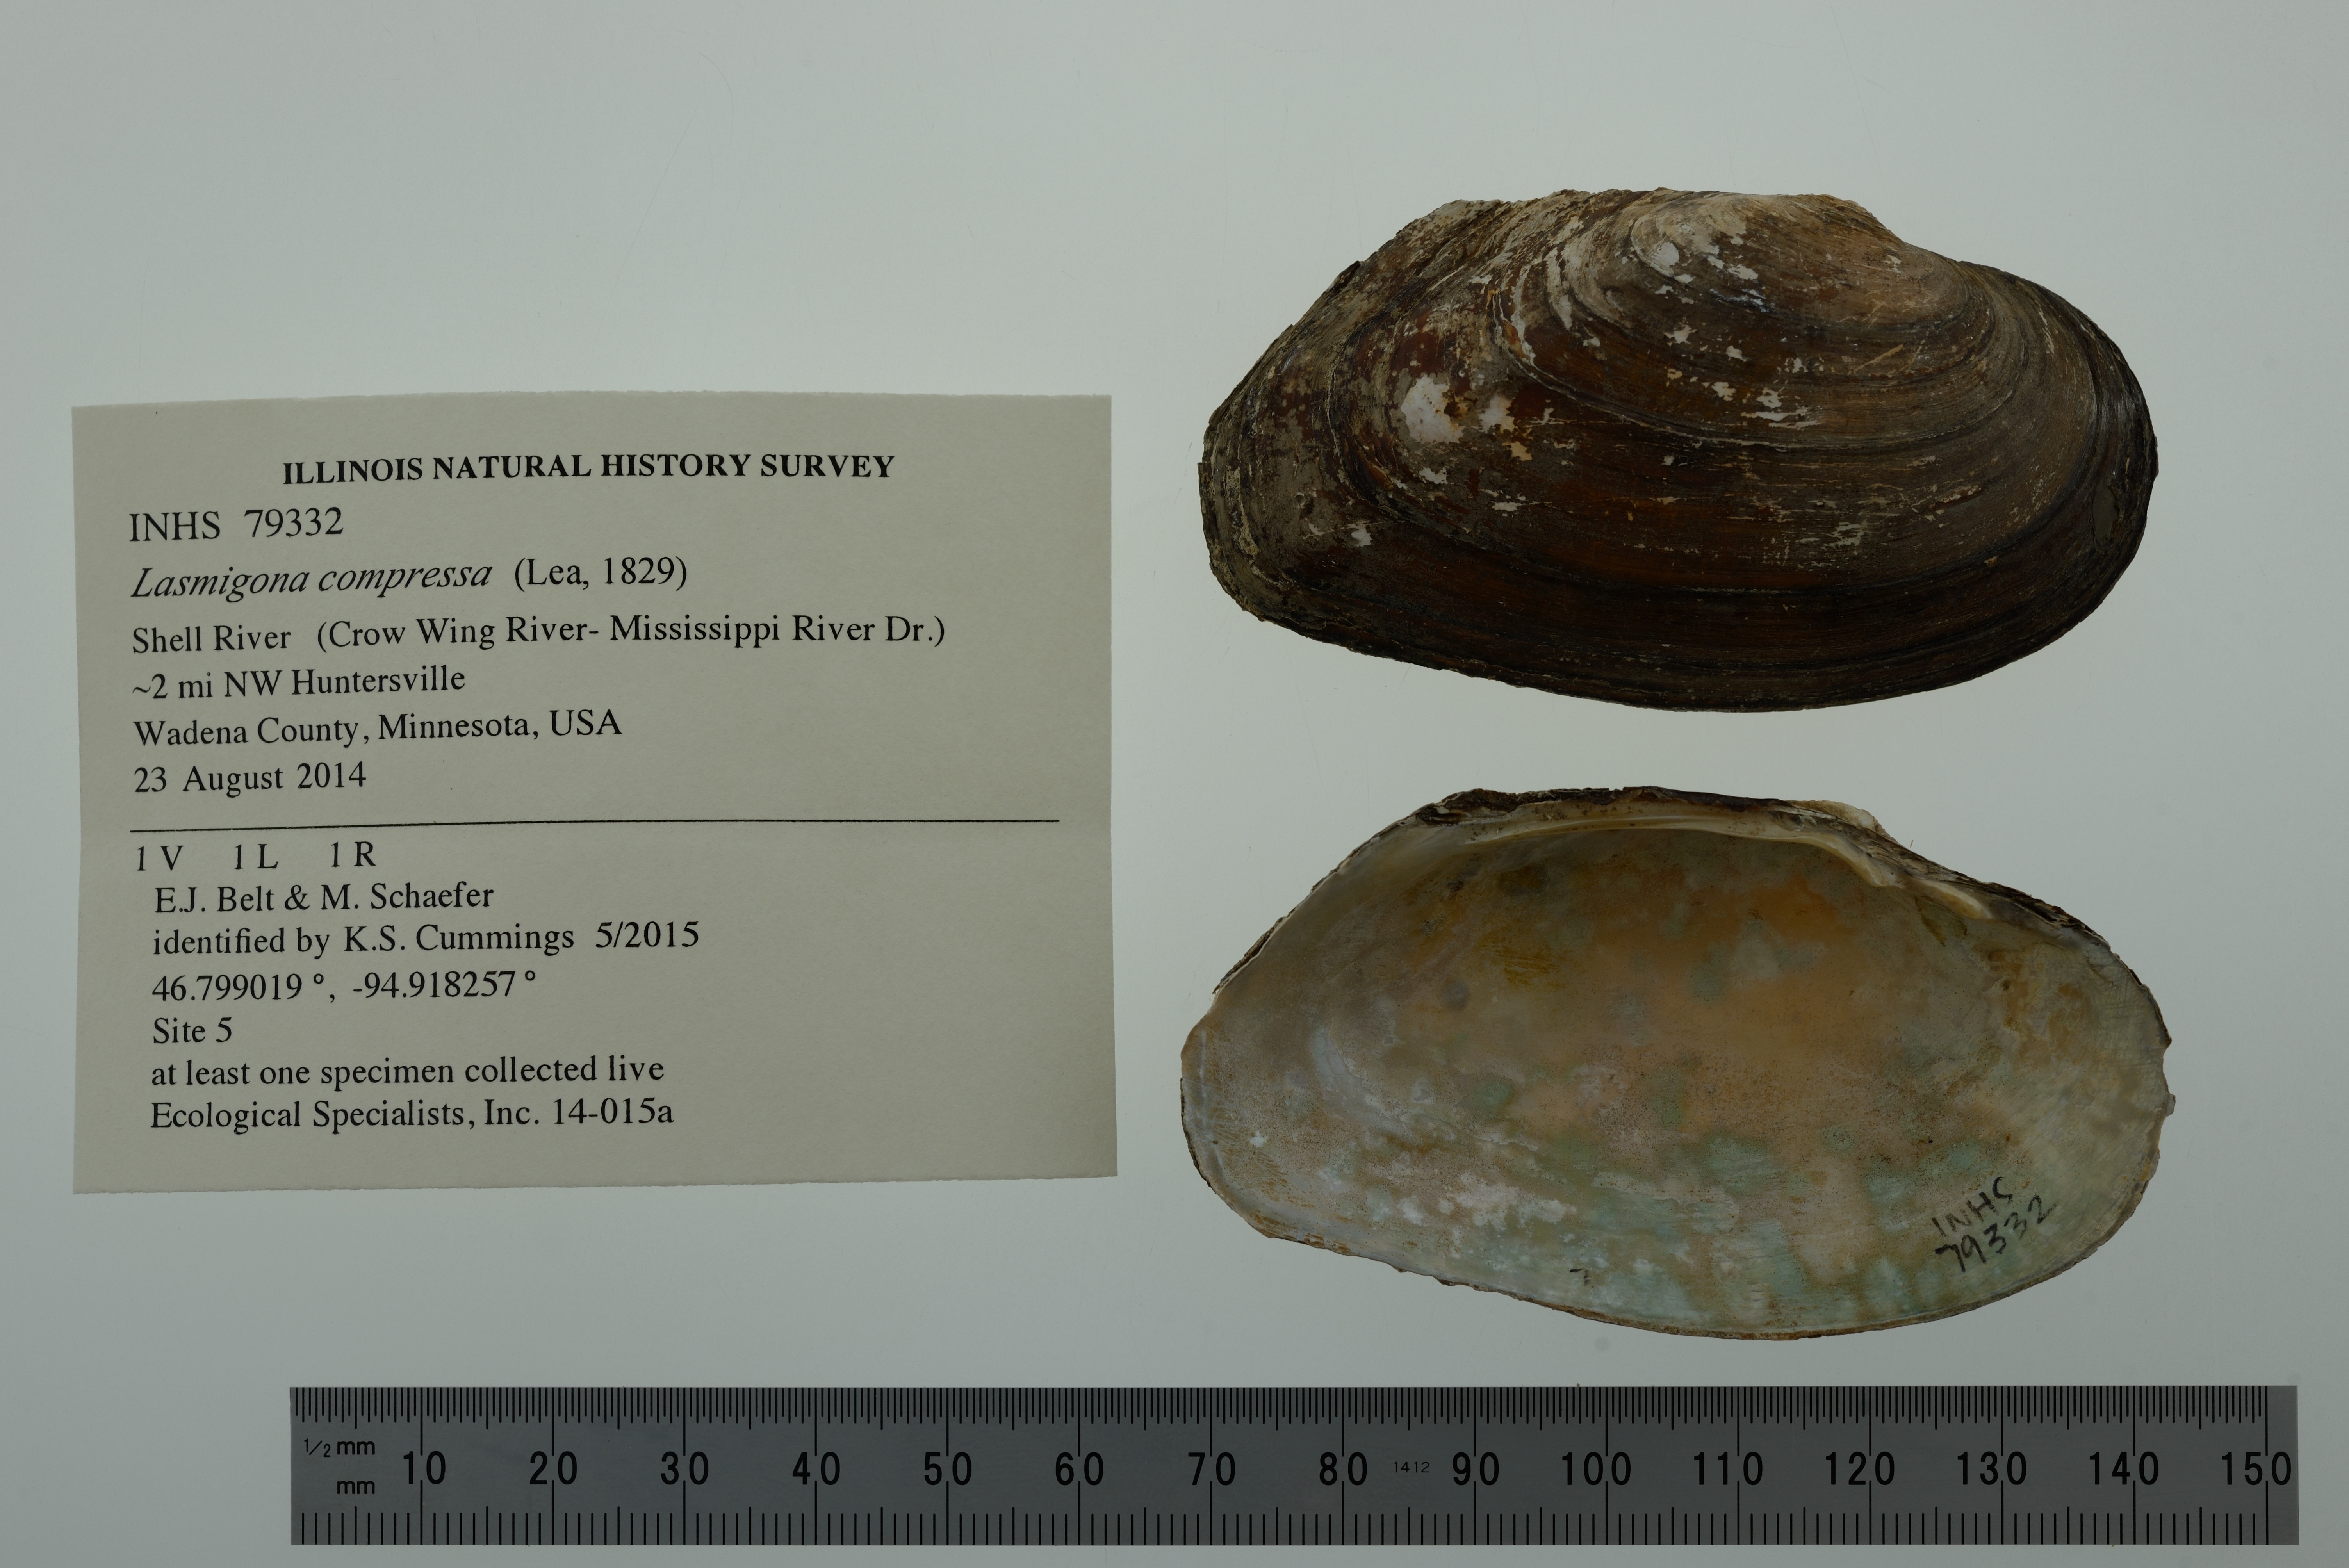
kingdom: Animalia
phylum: Mollusca
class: Bivalvia
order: Unionida
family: Unionidae
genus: Lasmigona
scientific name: Lasmigona compressa
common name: Creek heelsplitter
